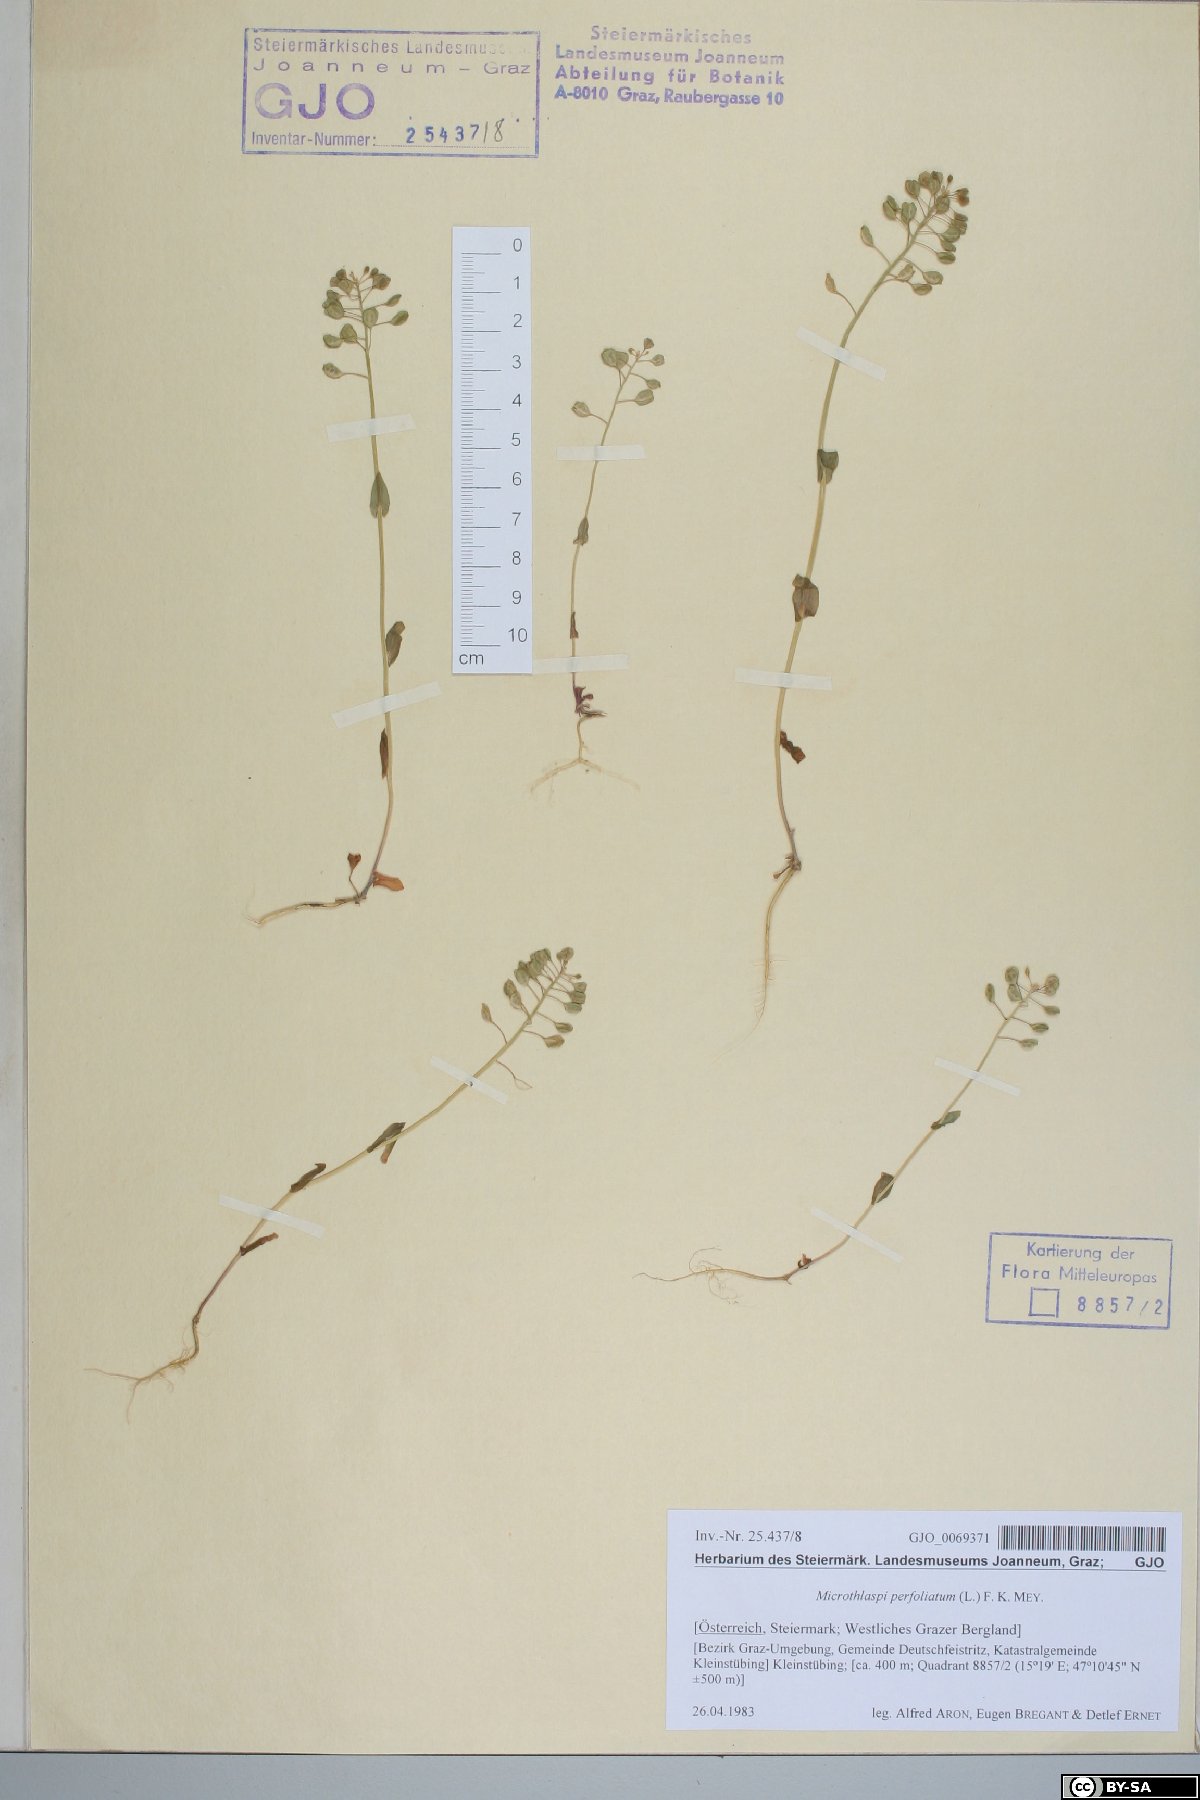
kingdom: Plantae
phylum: Tracheophyta
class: Magnoliopsida
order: Brassicales
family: Brassicaceae
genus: Noccaea
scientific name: Noccaea perfoliata
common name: Perfoliate pennycress
